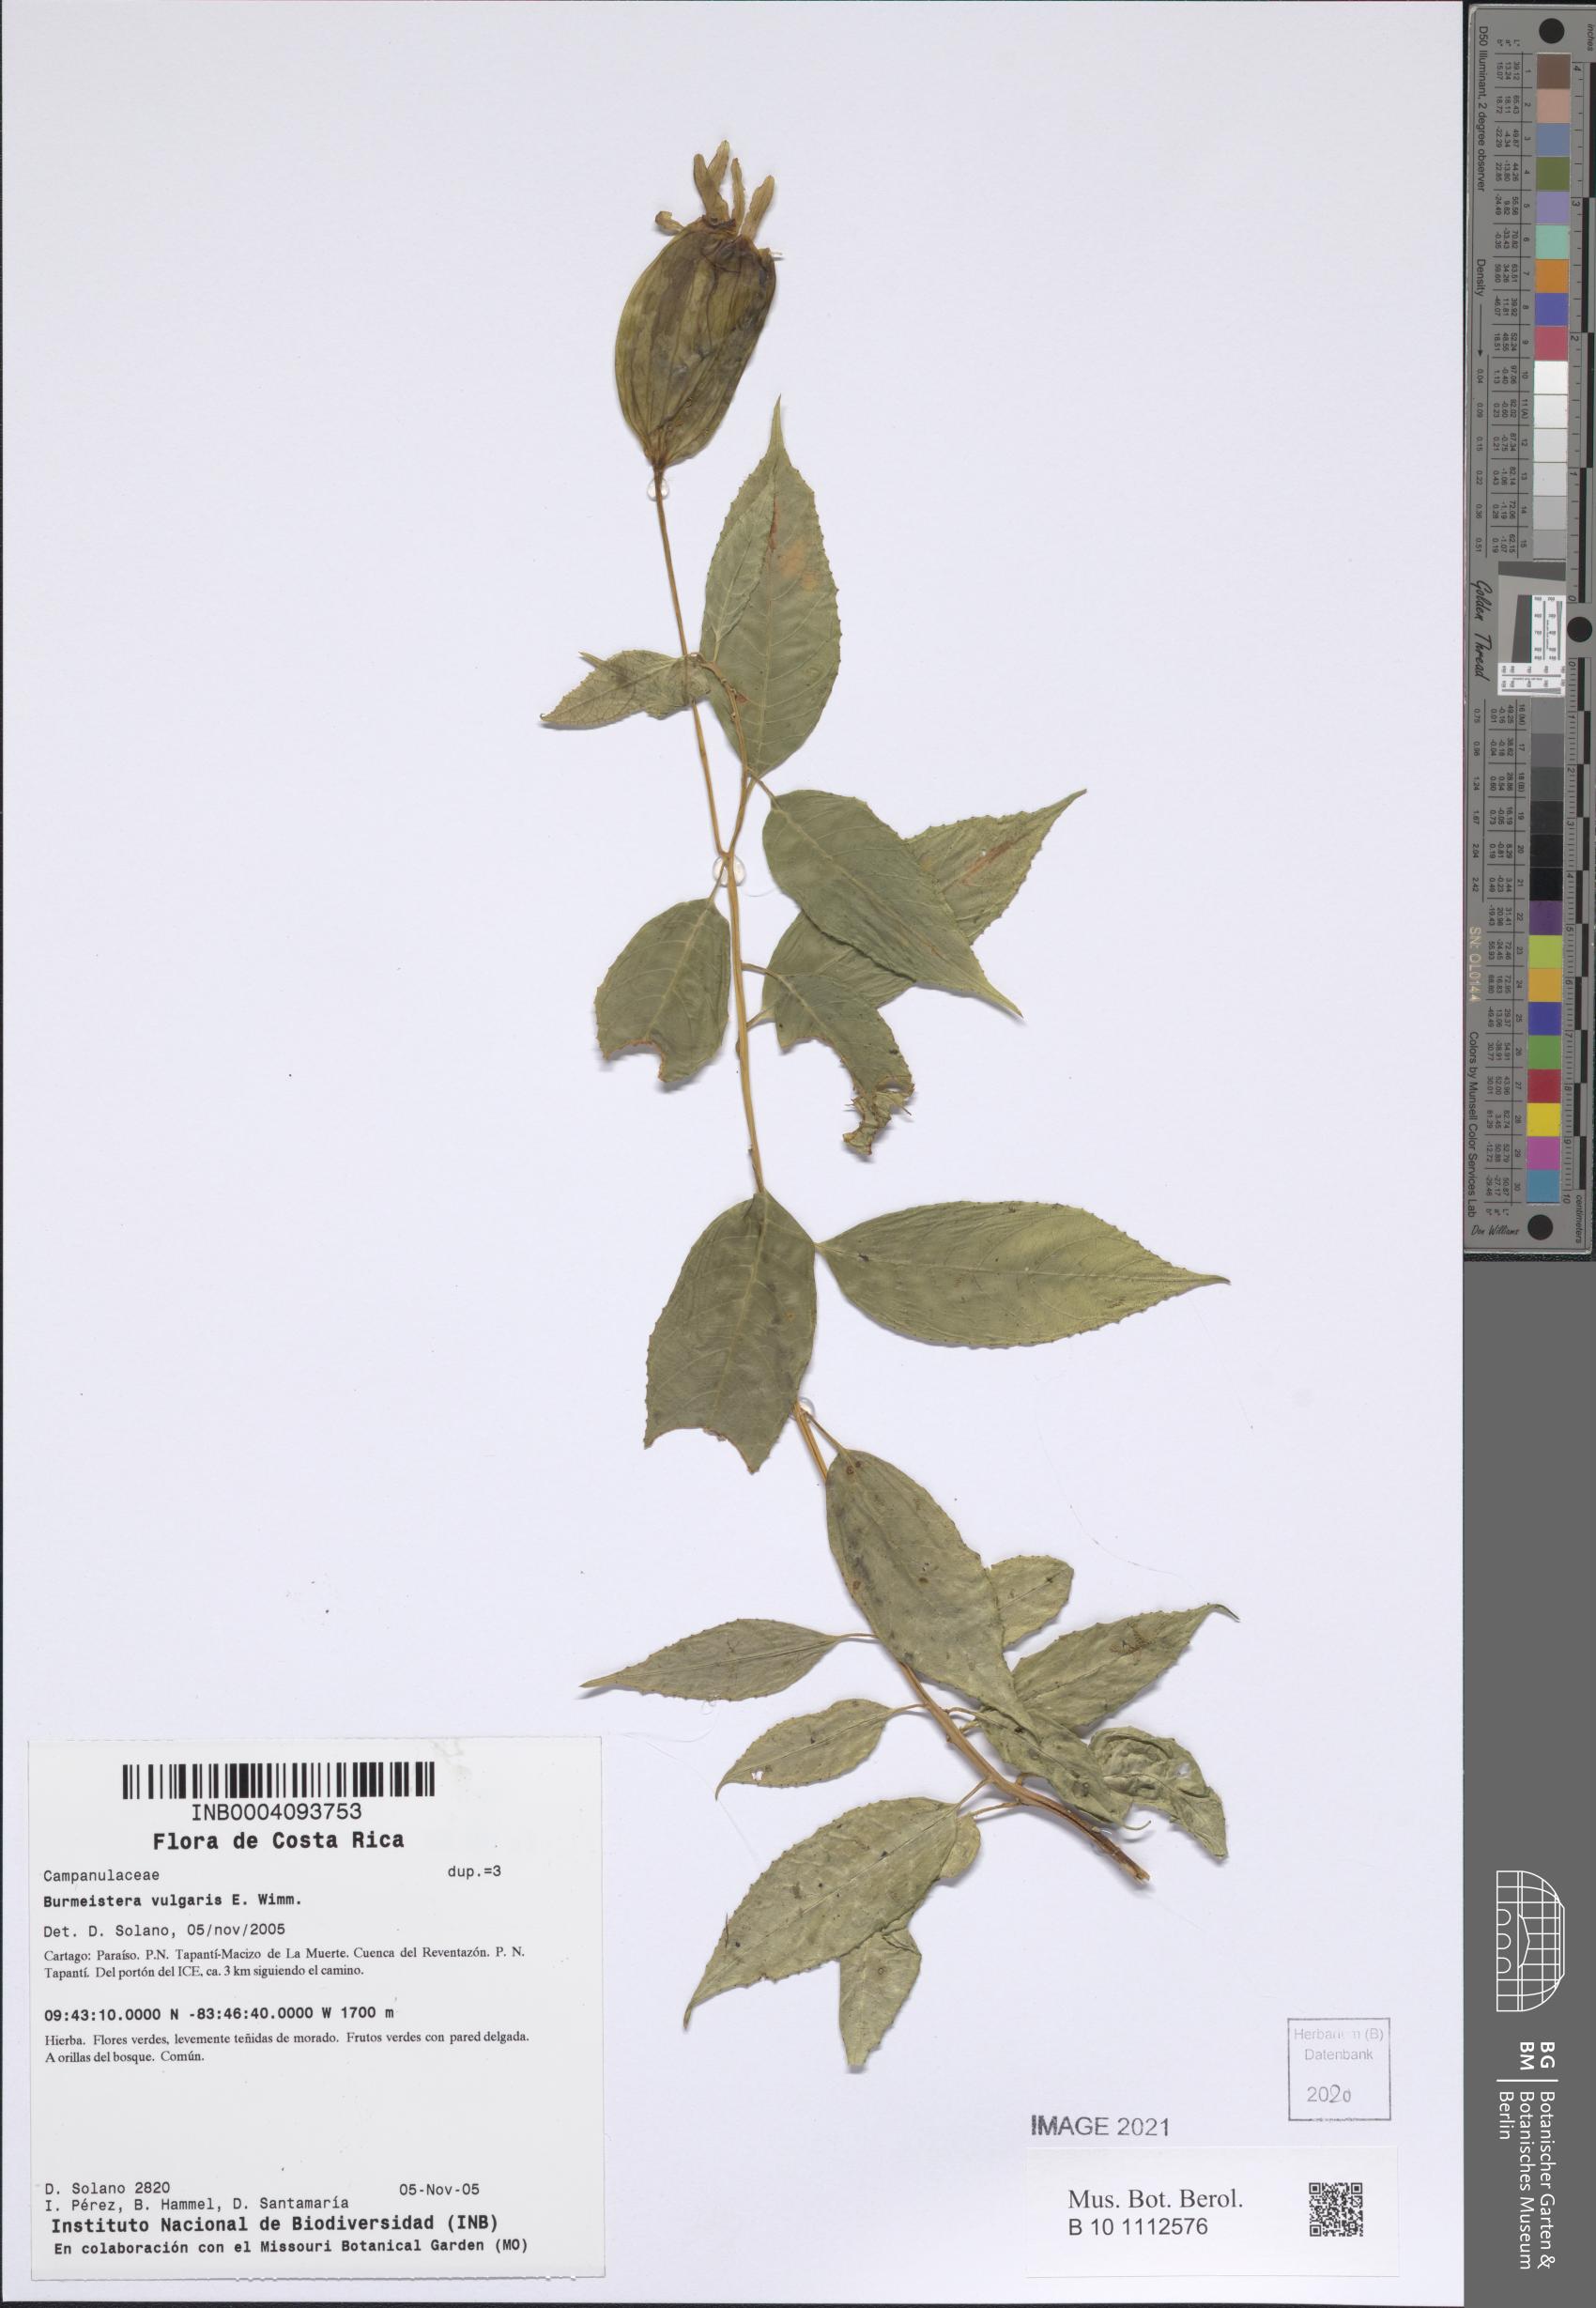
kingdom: Plantae
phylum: Tracheophyta
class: Magnoliopsida
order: Asterales
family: Campanulaceae
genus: Burmeistera
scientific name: Burmeistera vulgaris
